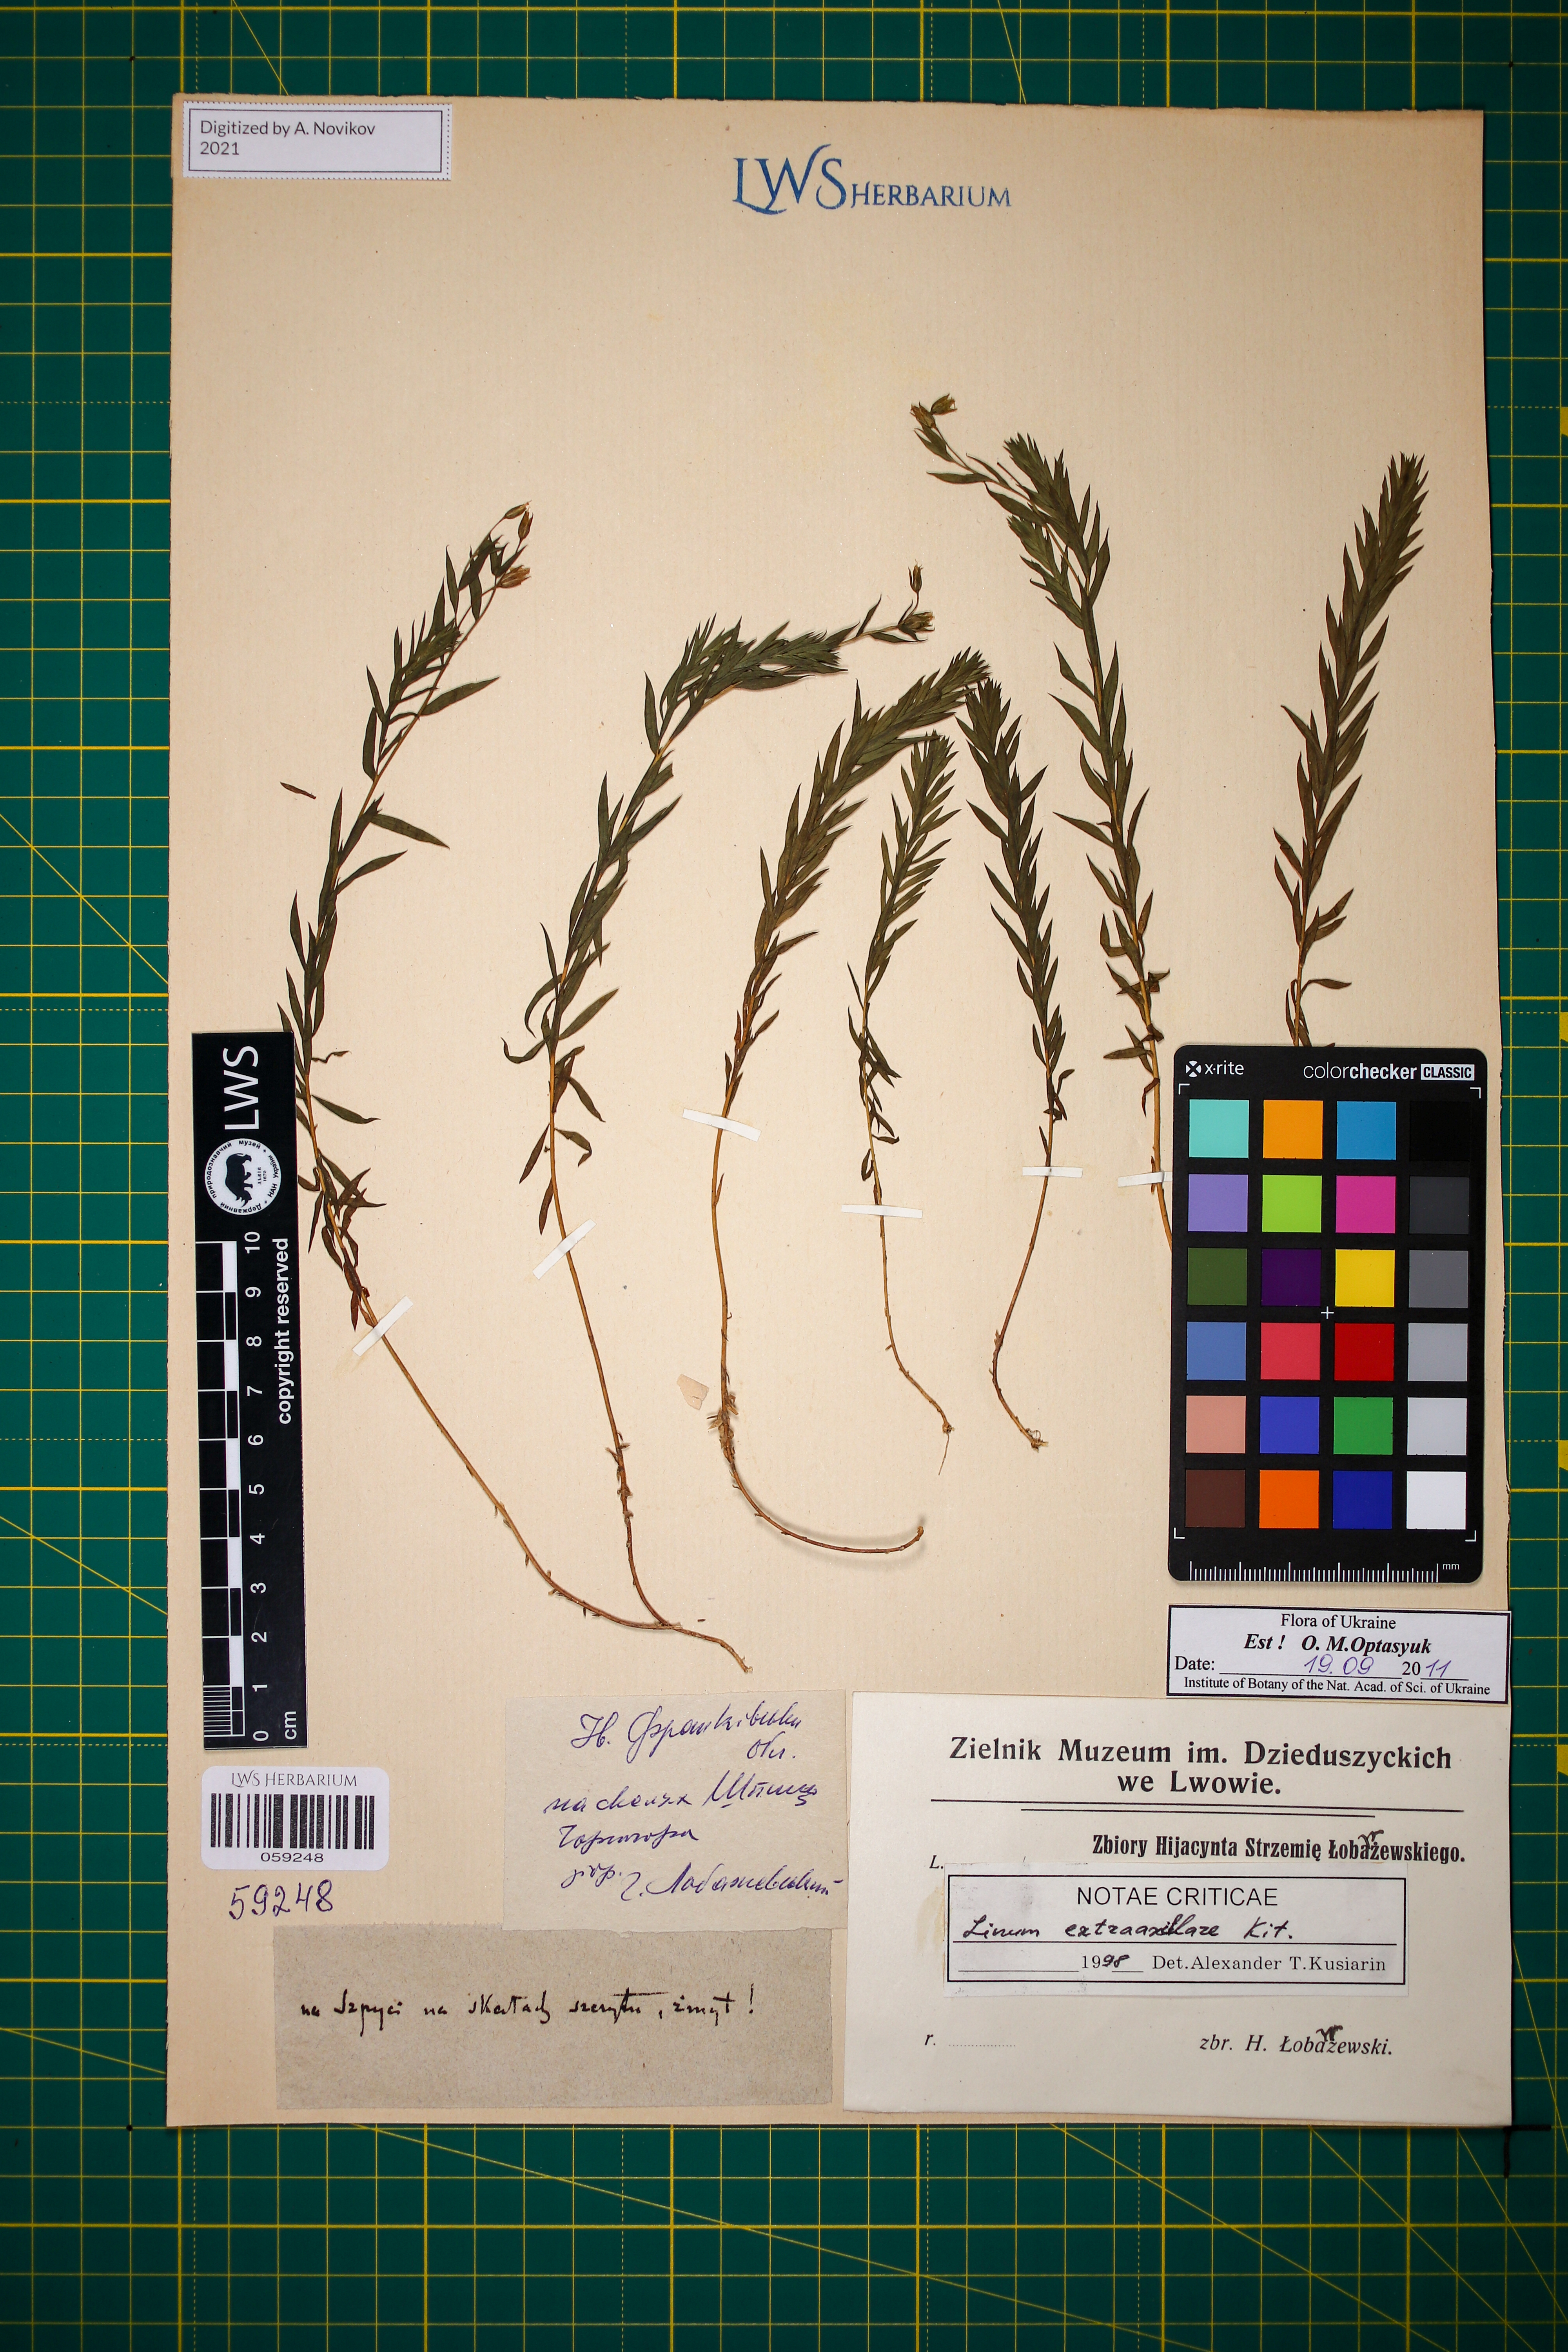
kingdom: Plantae
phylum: Tracheophyta
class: Magnoliopsida
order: Malpighiales
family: Linaceae
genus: Linum
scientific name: Linum perenne
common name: Blue flax
